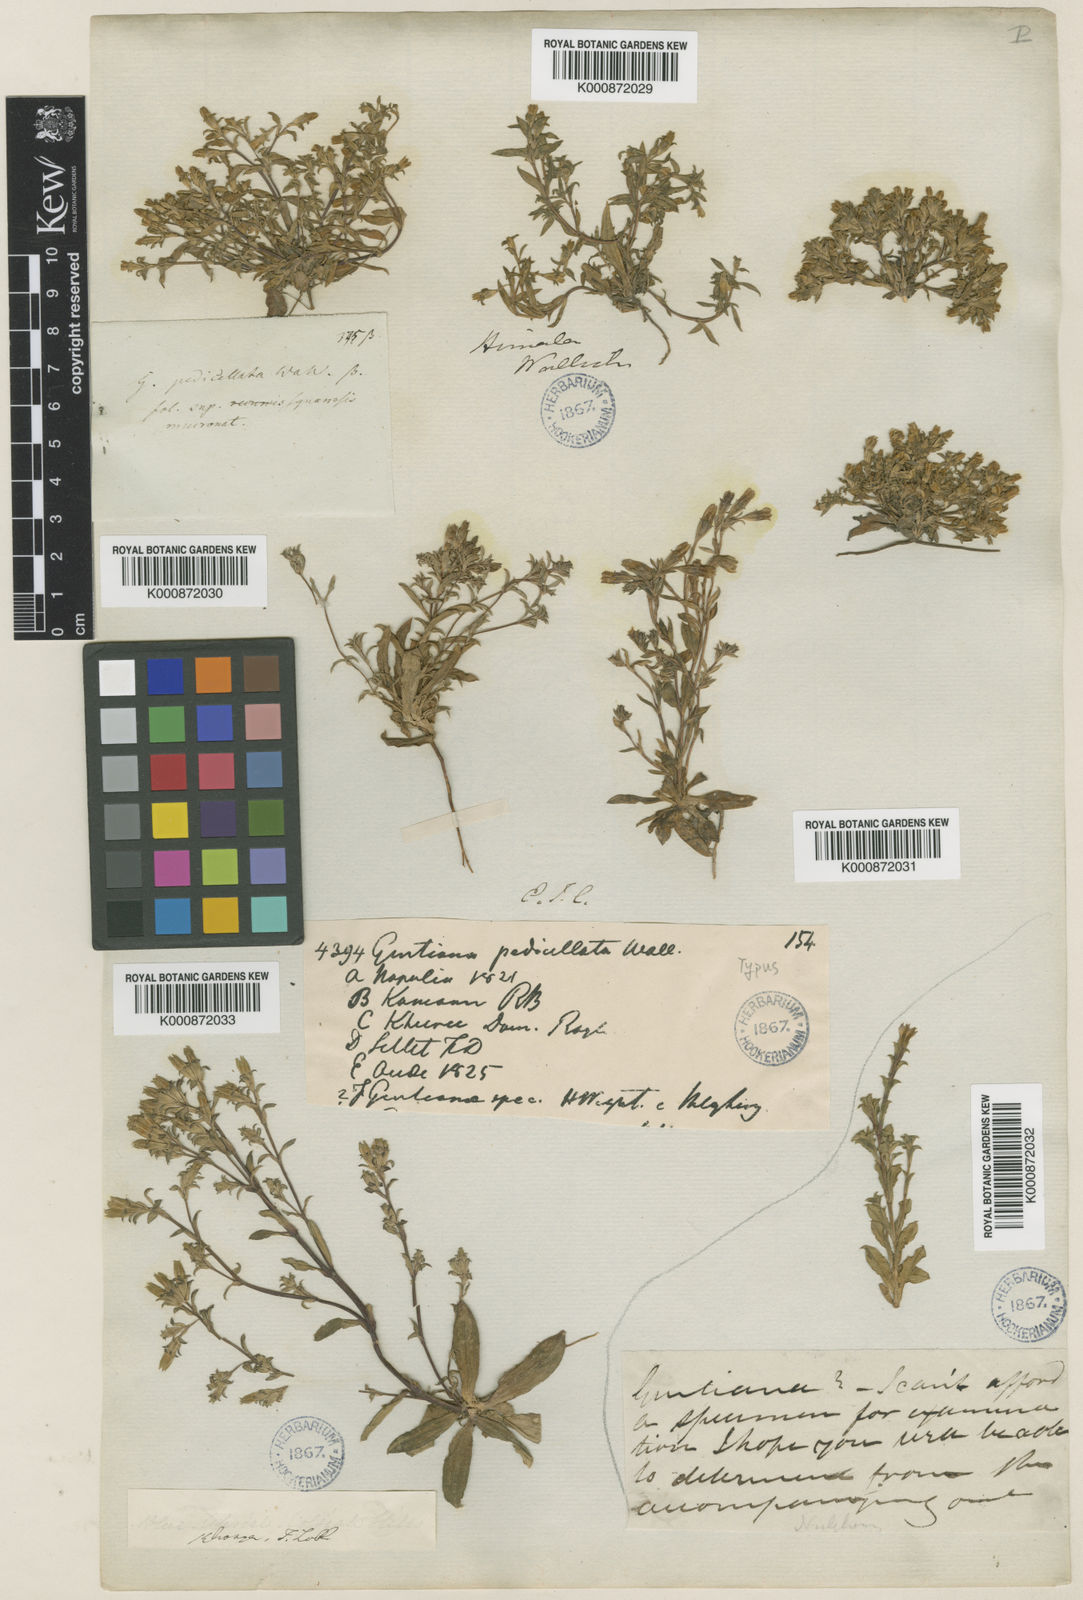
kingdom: Plantae
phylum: Tracheophyta
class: Magnoliopsida
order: Gentianales
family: Gentianaceae
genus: Gentiana
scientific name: Gentiana pedicellata
